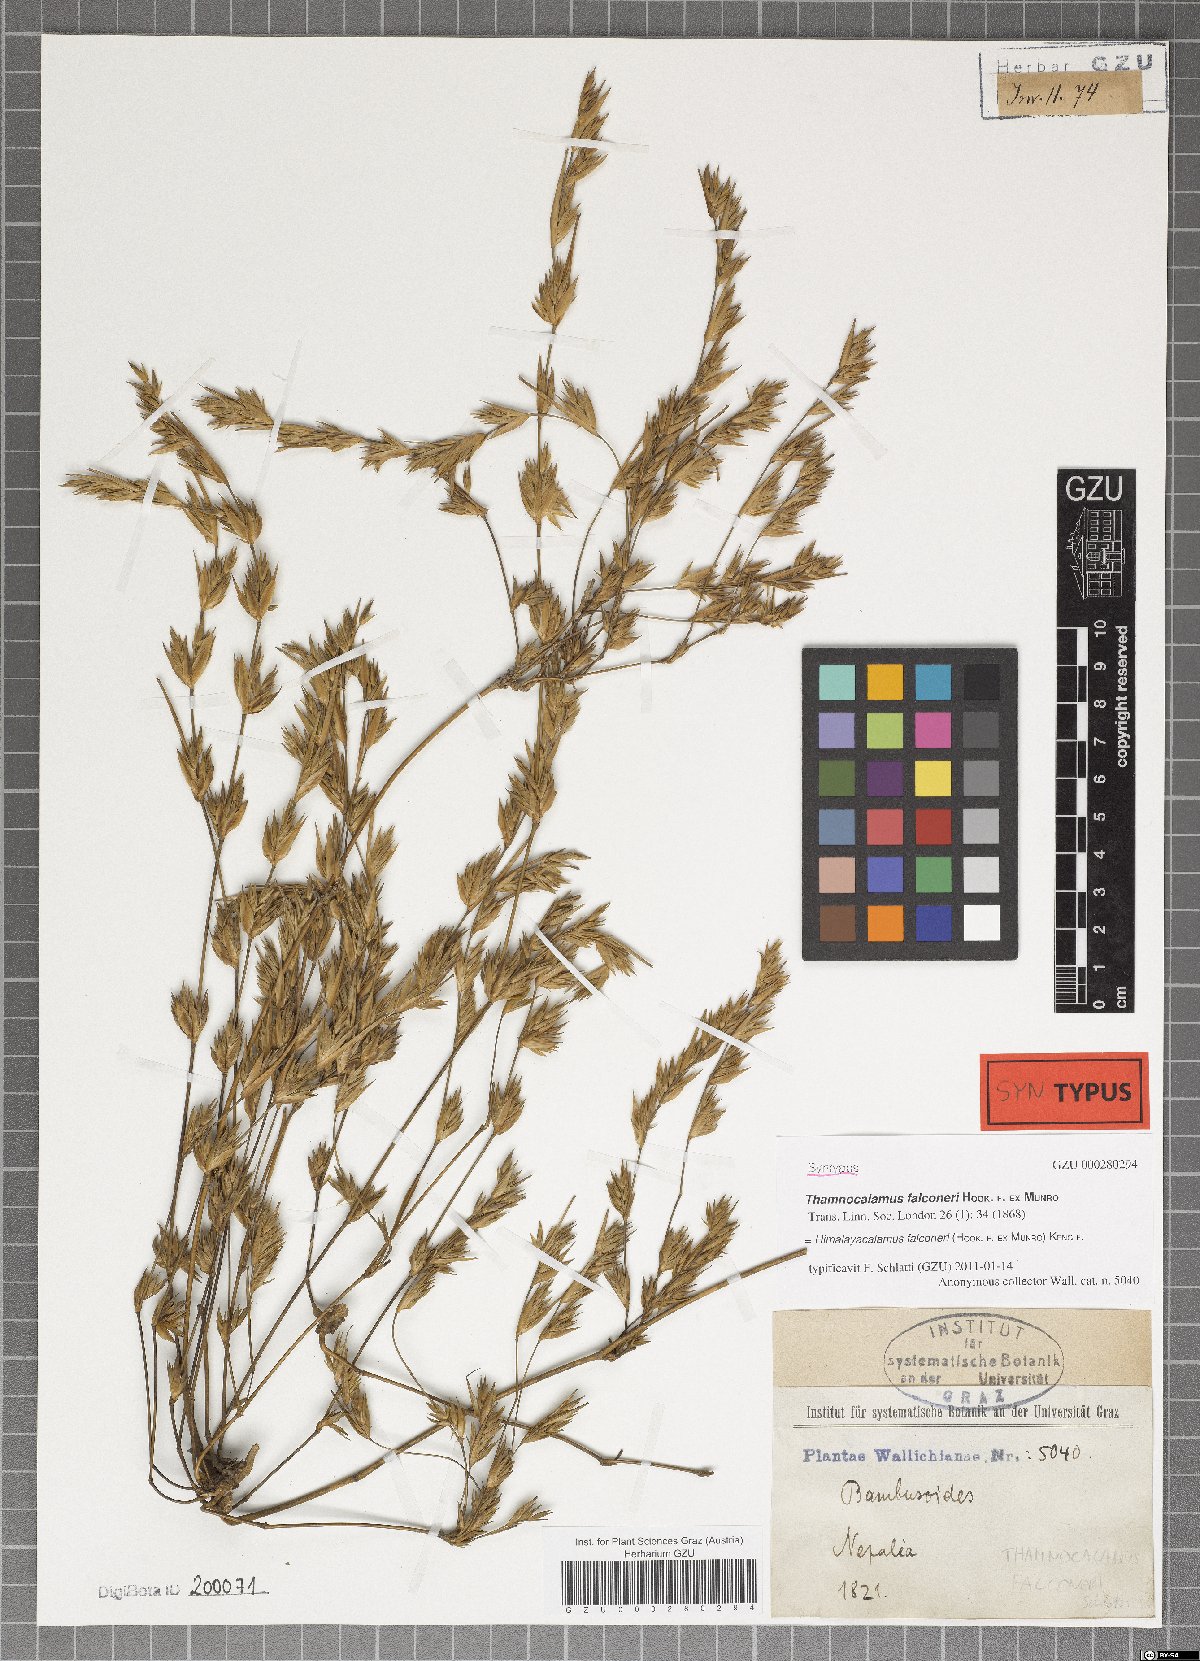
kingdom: Plantae
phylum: Tracheophyta
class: Liliopsida
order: Poales
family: Poaceae
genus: Himalayacalamus
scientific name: Himalayacalamus falconeri
